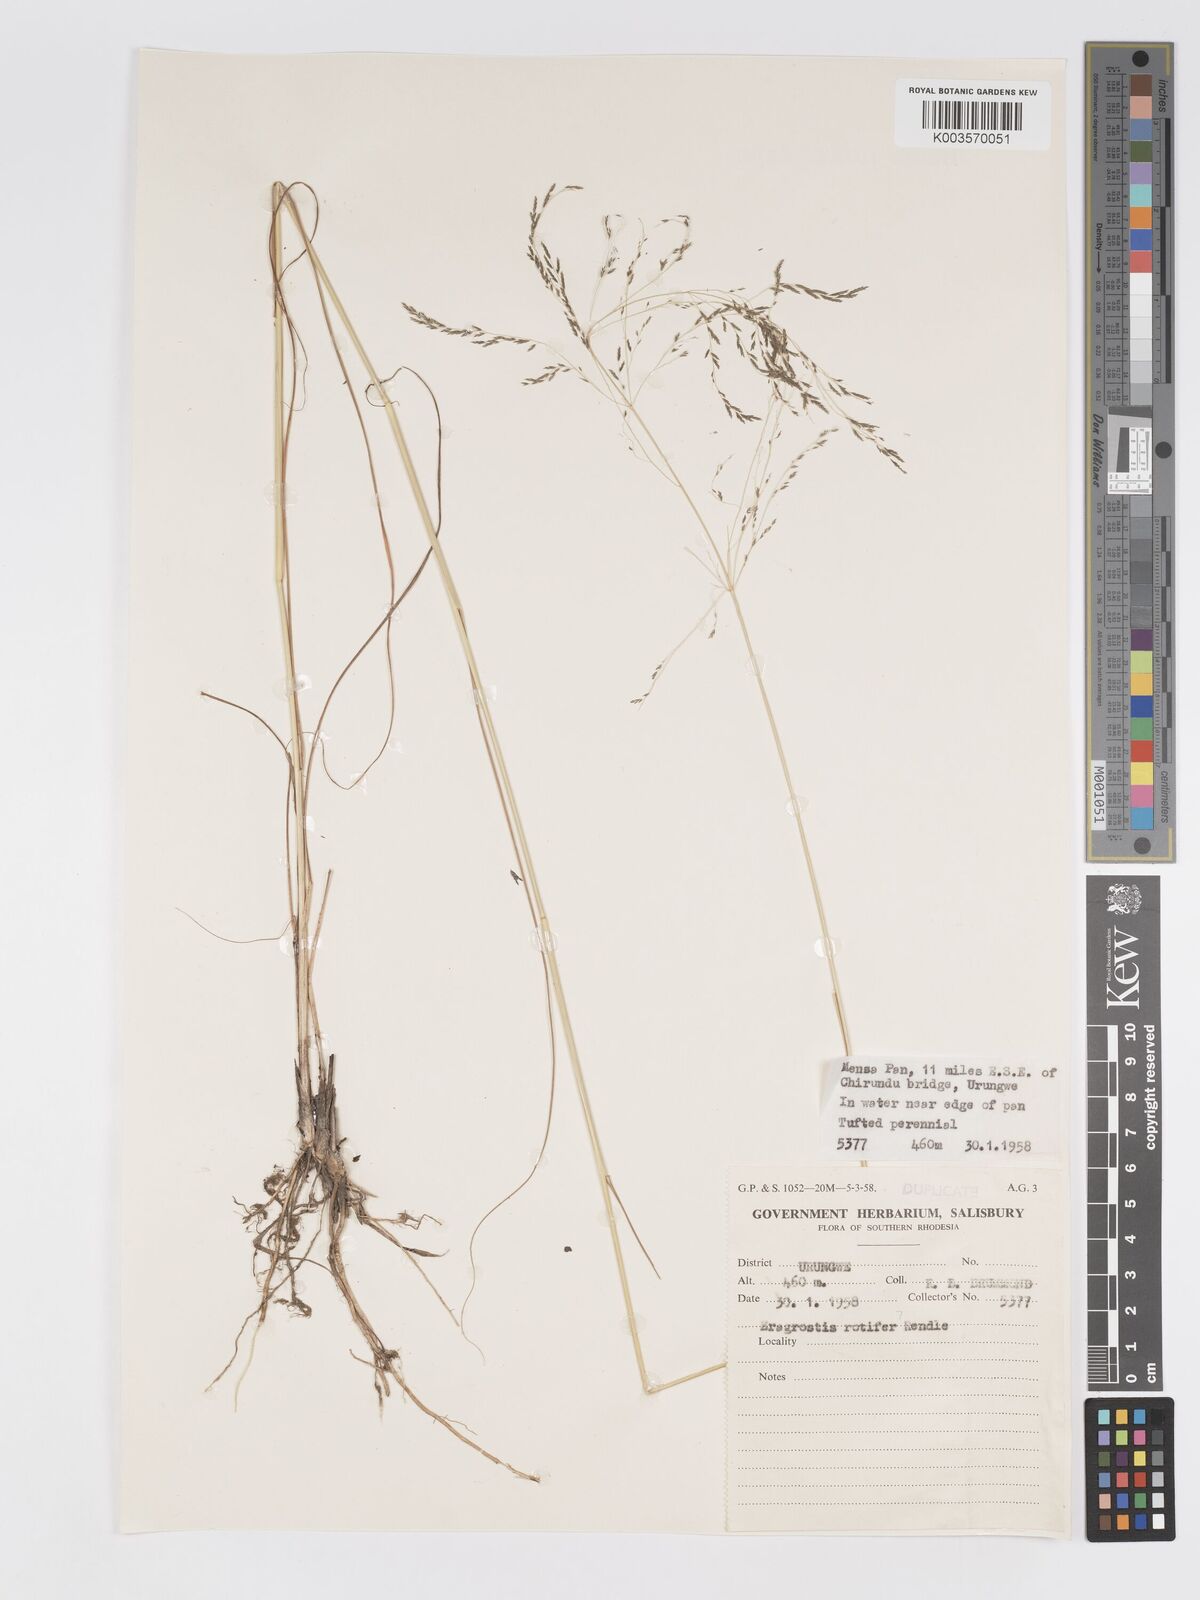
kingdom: Plantae
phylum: Tracheophyta
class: Liliopsida
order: Poales
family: Poaceae
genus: Eragrostis
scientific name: Eragrostis rotifer
